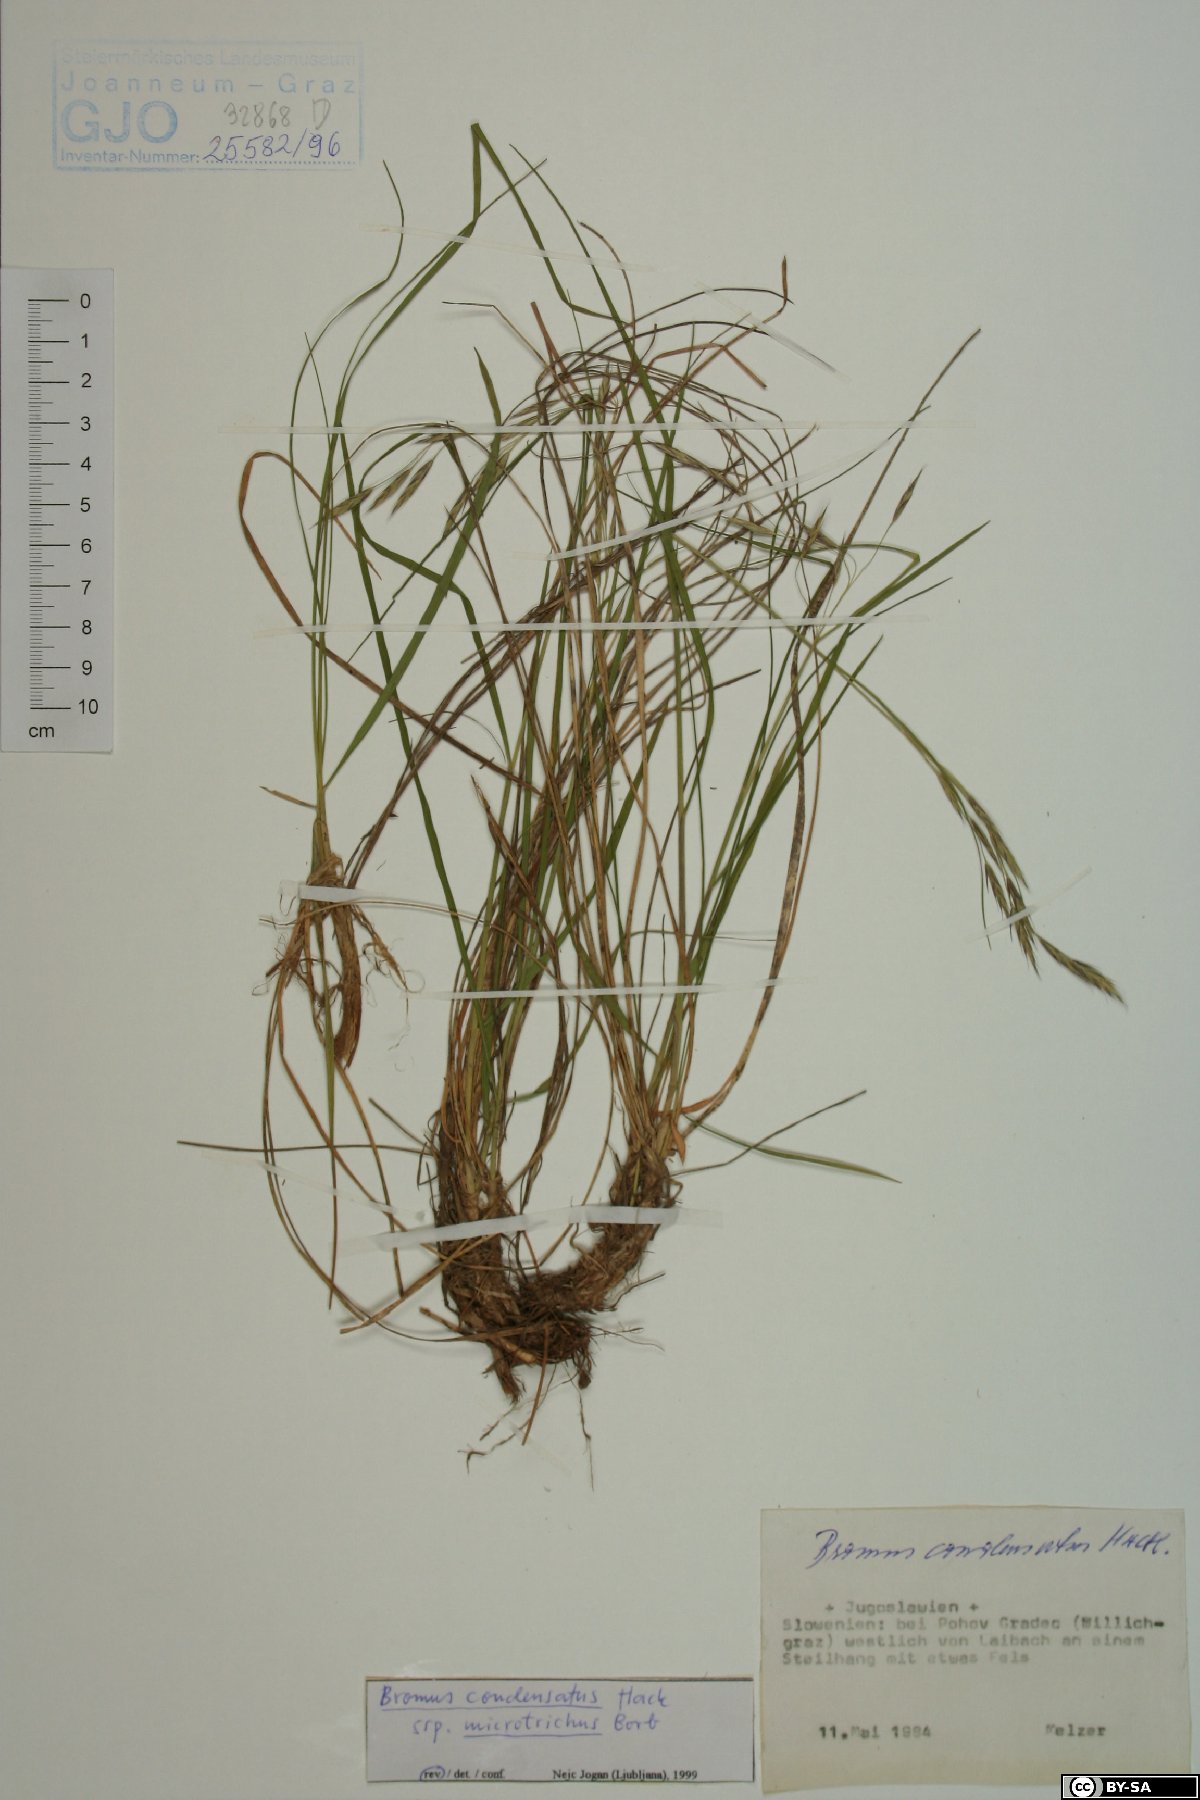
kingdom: Plantae
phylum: Tracheophyta
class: Liliopsida
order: Poales
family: Poaceae
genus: Bromus
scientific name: Bromus condensatus
